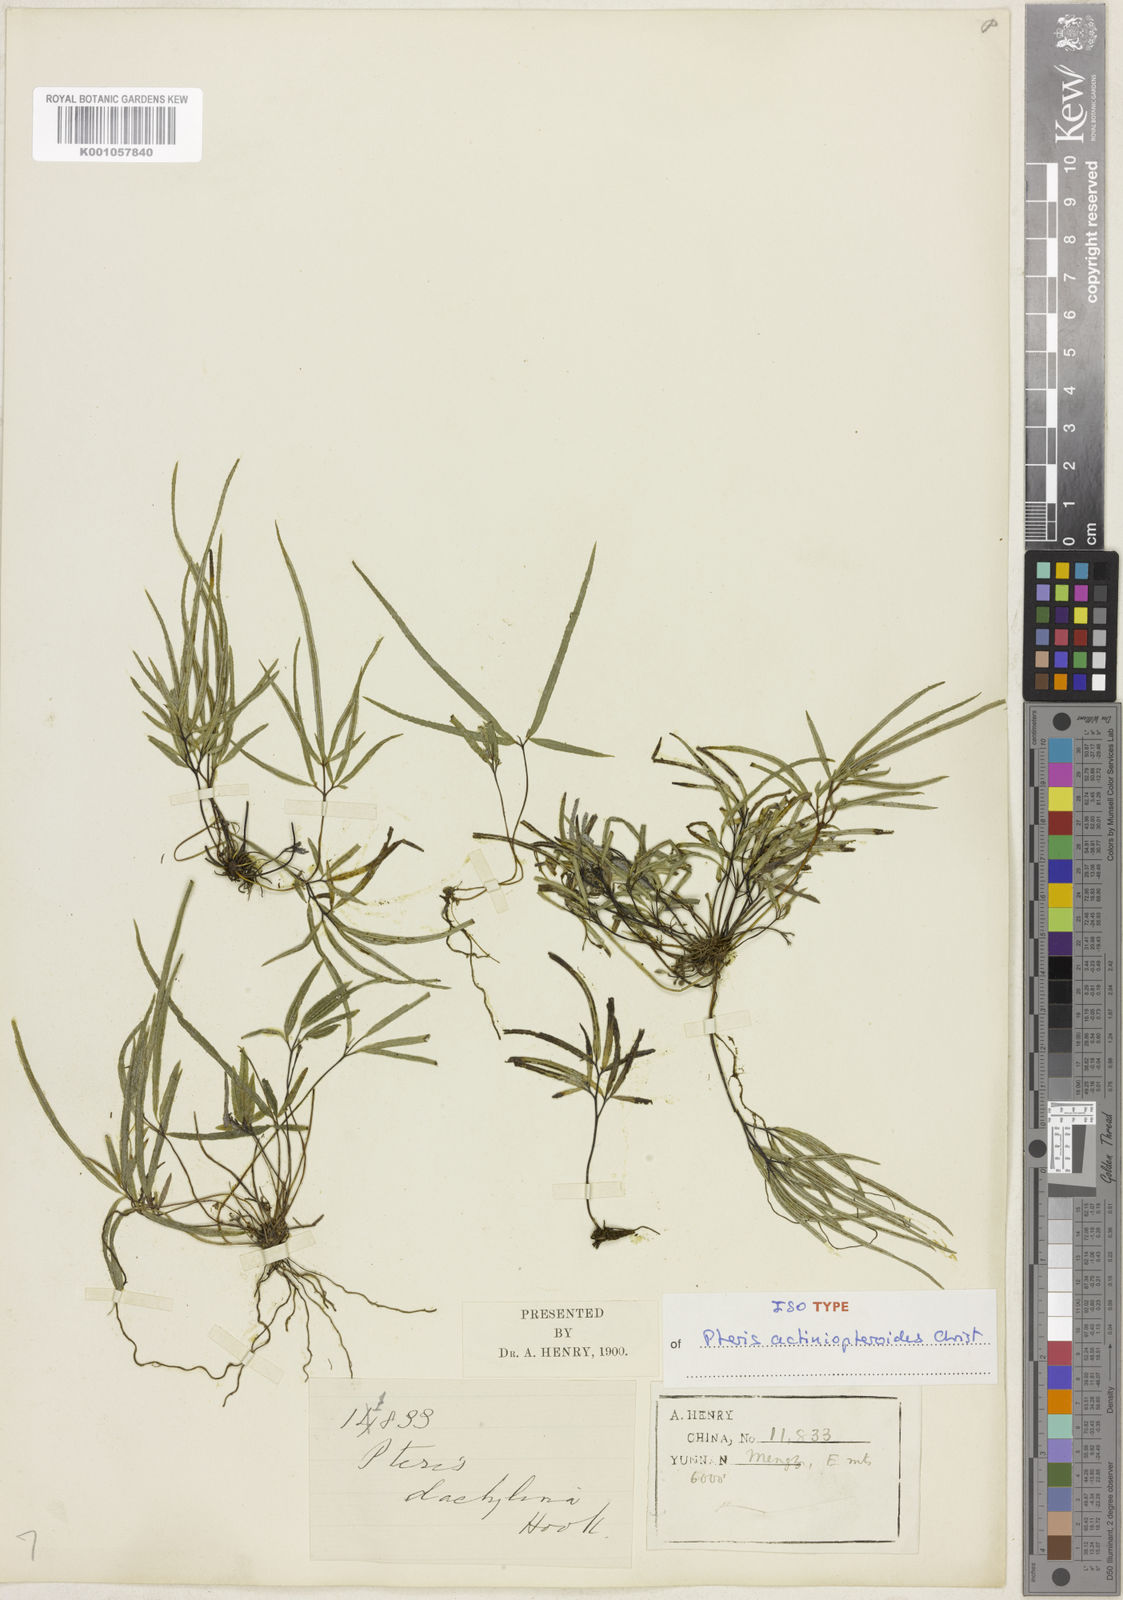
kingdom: Plantae
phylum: Tracheophyta
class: Polypodiopsida
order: Polypodiales
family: Pteridaceae
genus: Pteris
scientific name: Pteris actiniopteroides
